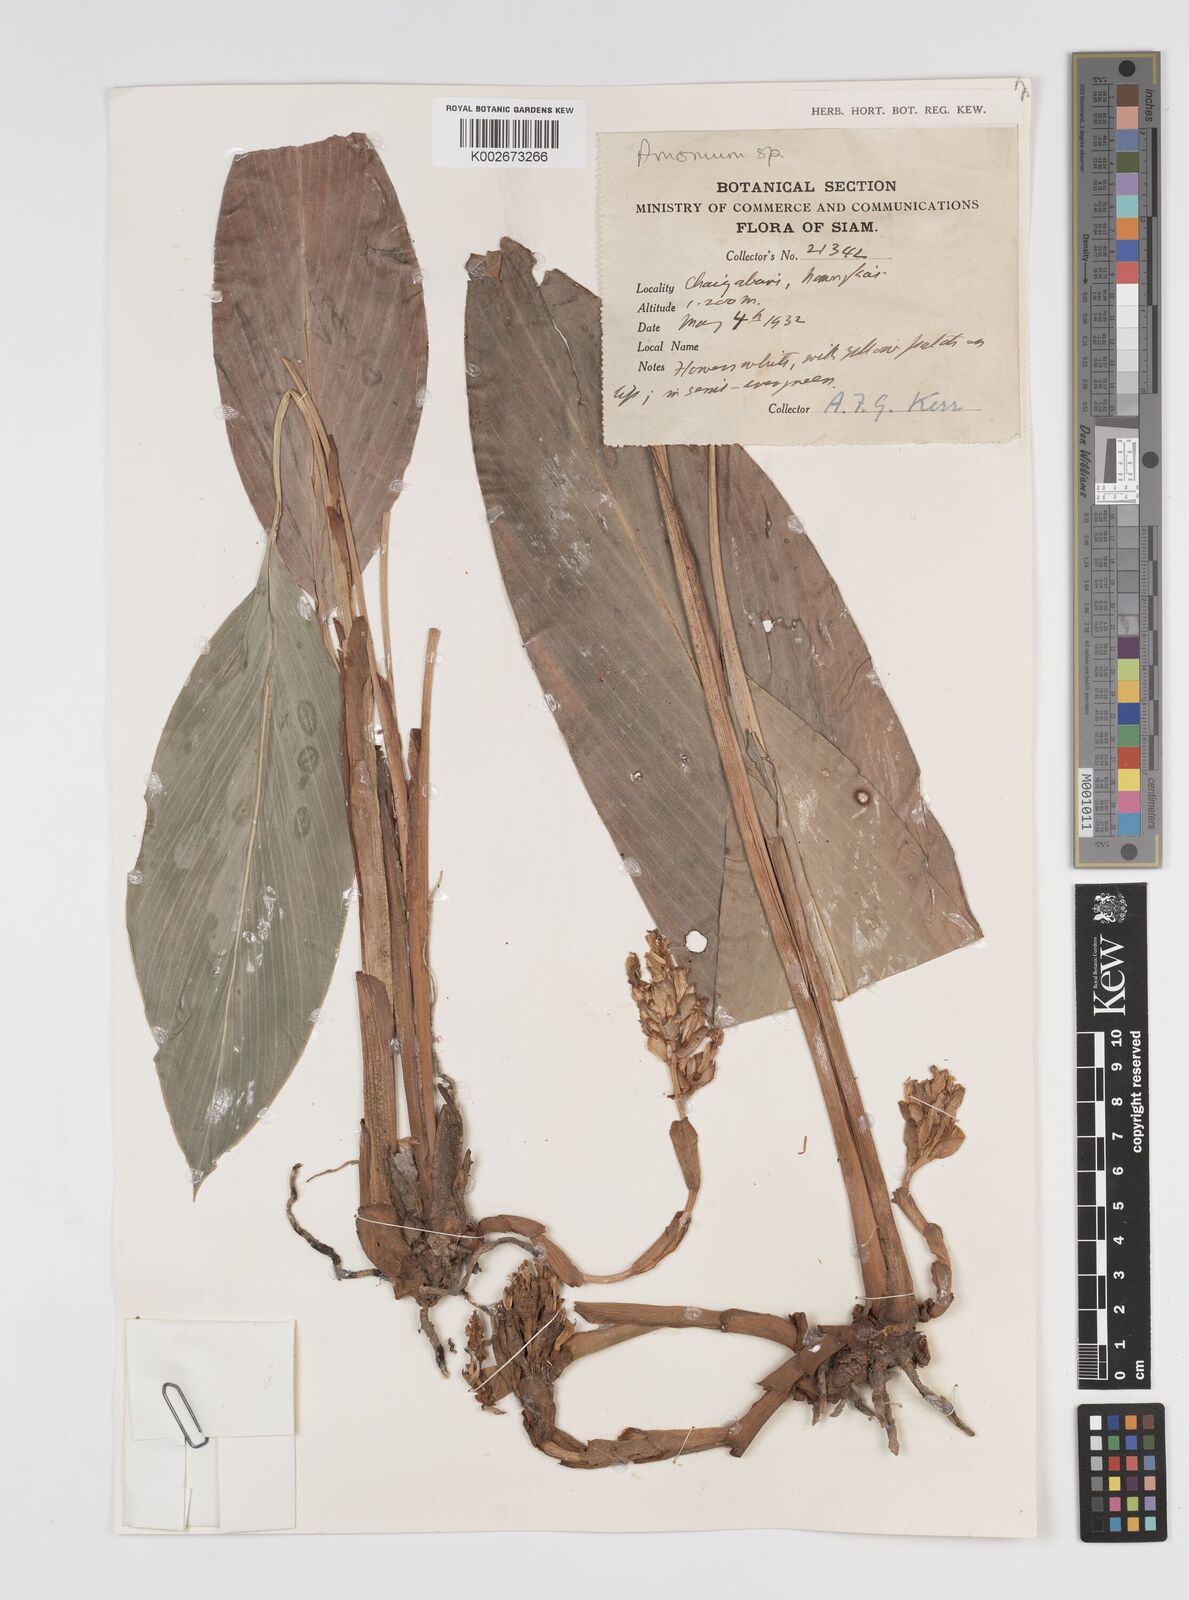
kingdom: Plantae
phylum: Tracheophyta
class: Liliopsida
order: Zingiberales
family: Zingiberaceae
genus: Amomum
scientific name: Amomum
